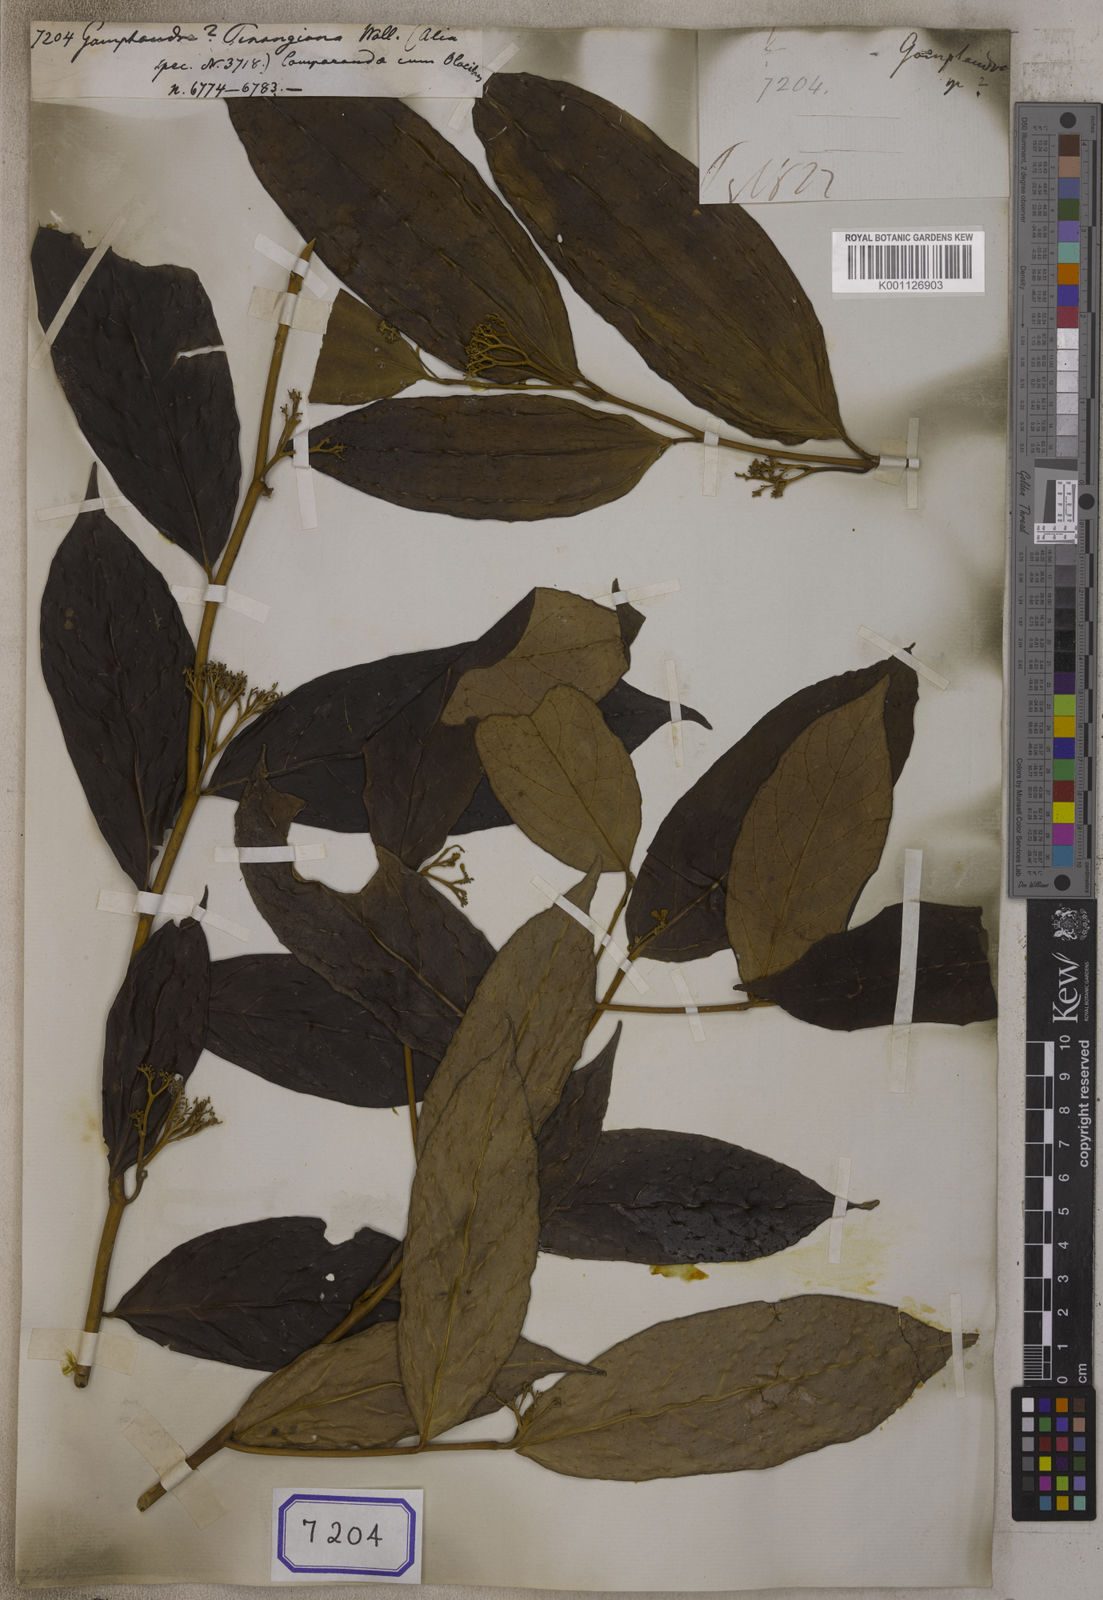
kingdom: Plantae
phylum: Tracheophyta
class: Magnoliopsida
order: Cardiopteridales
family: Stemonuraceae
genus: Gomphandra
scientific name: Gomphandra
